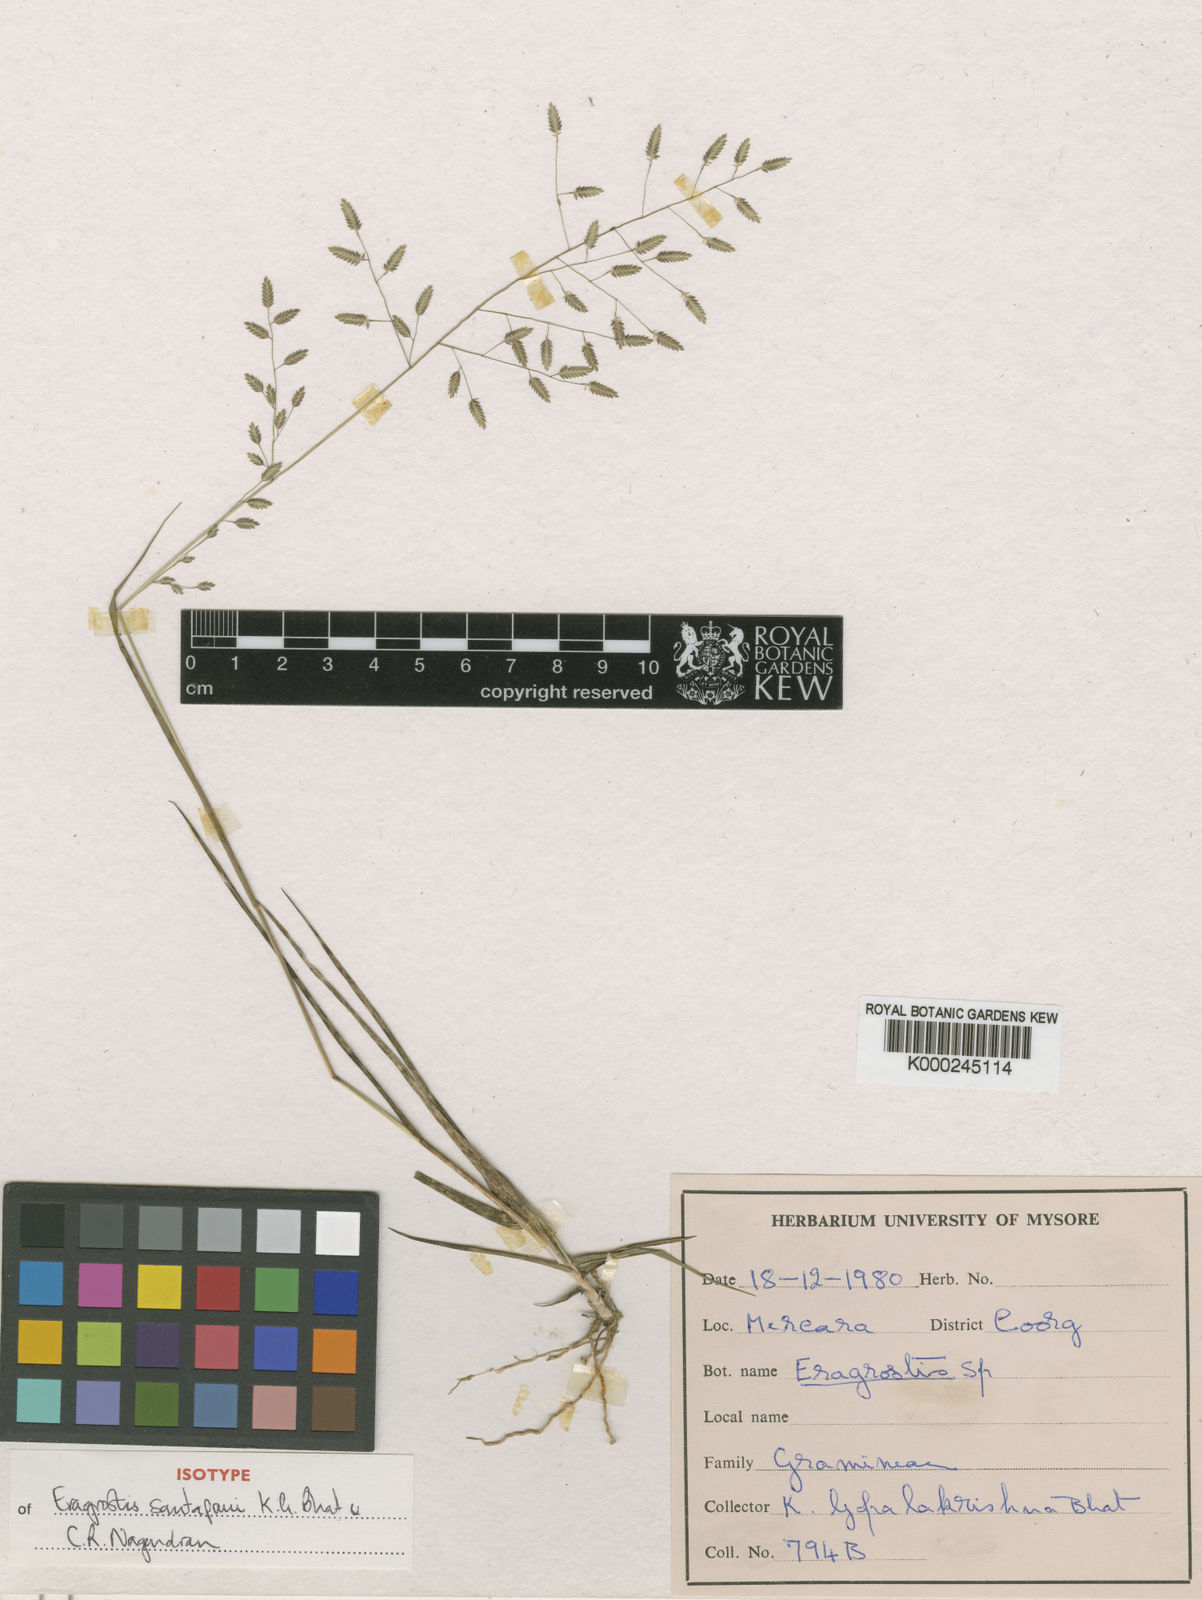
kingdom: Plantae
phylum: Tracheophyta
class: Liliopsida
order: Poales
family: Poaceae
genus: Eragrostis
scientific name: Eragrostis brownii
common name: Lovegrass
